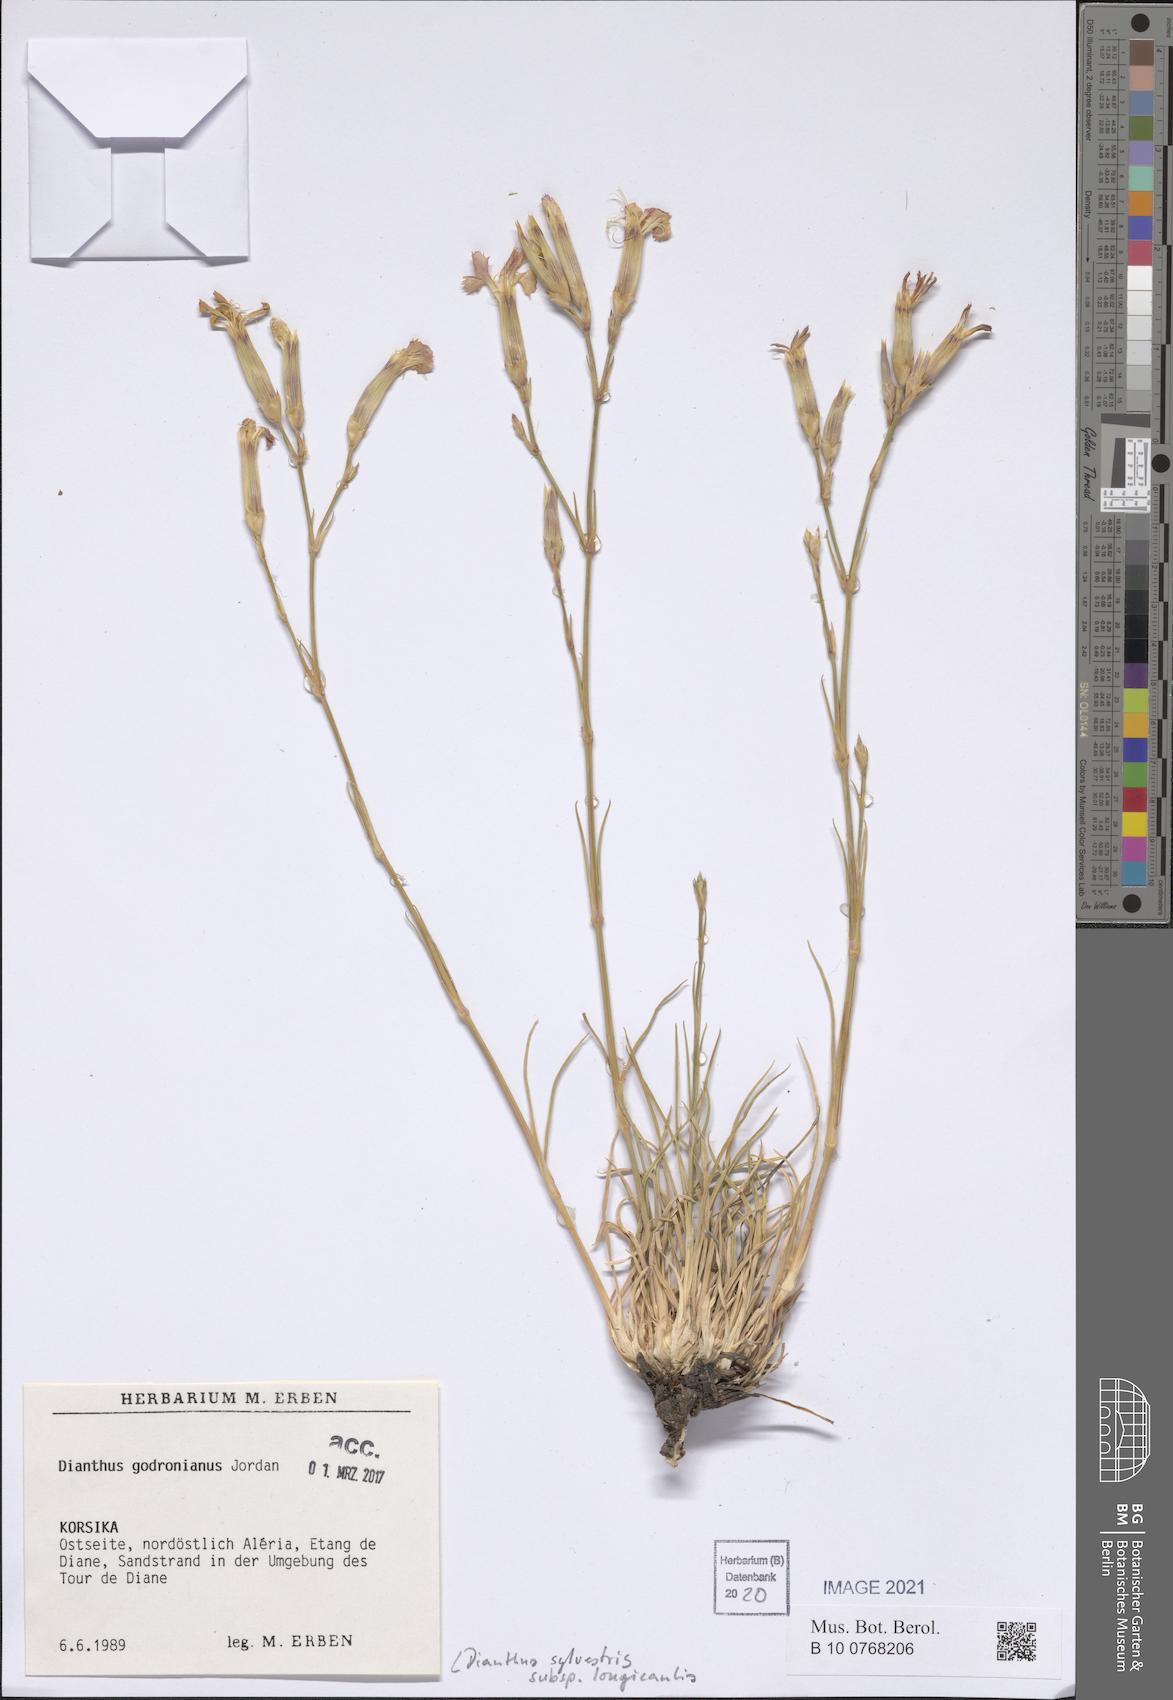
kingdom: Plantae
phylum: Tracheophyta
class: Magnoliopsida
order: Caryophyllales
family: Caryophyllaceae
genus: Dianthus
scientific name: Dianthus virgineus
